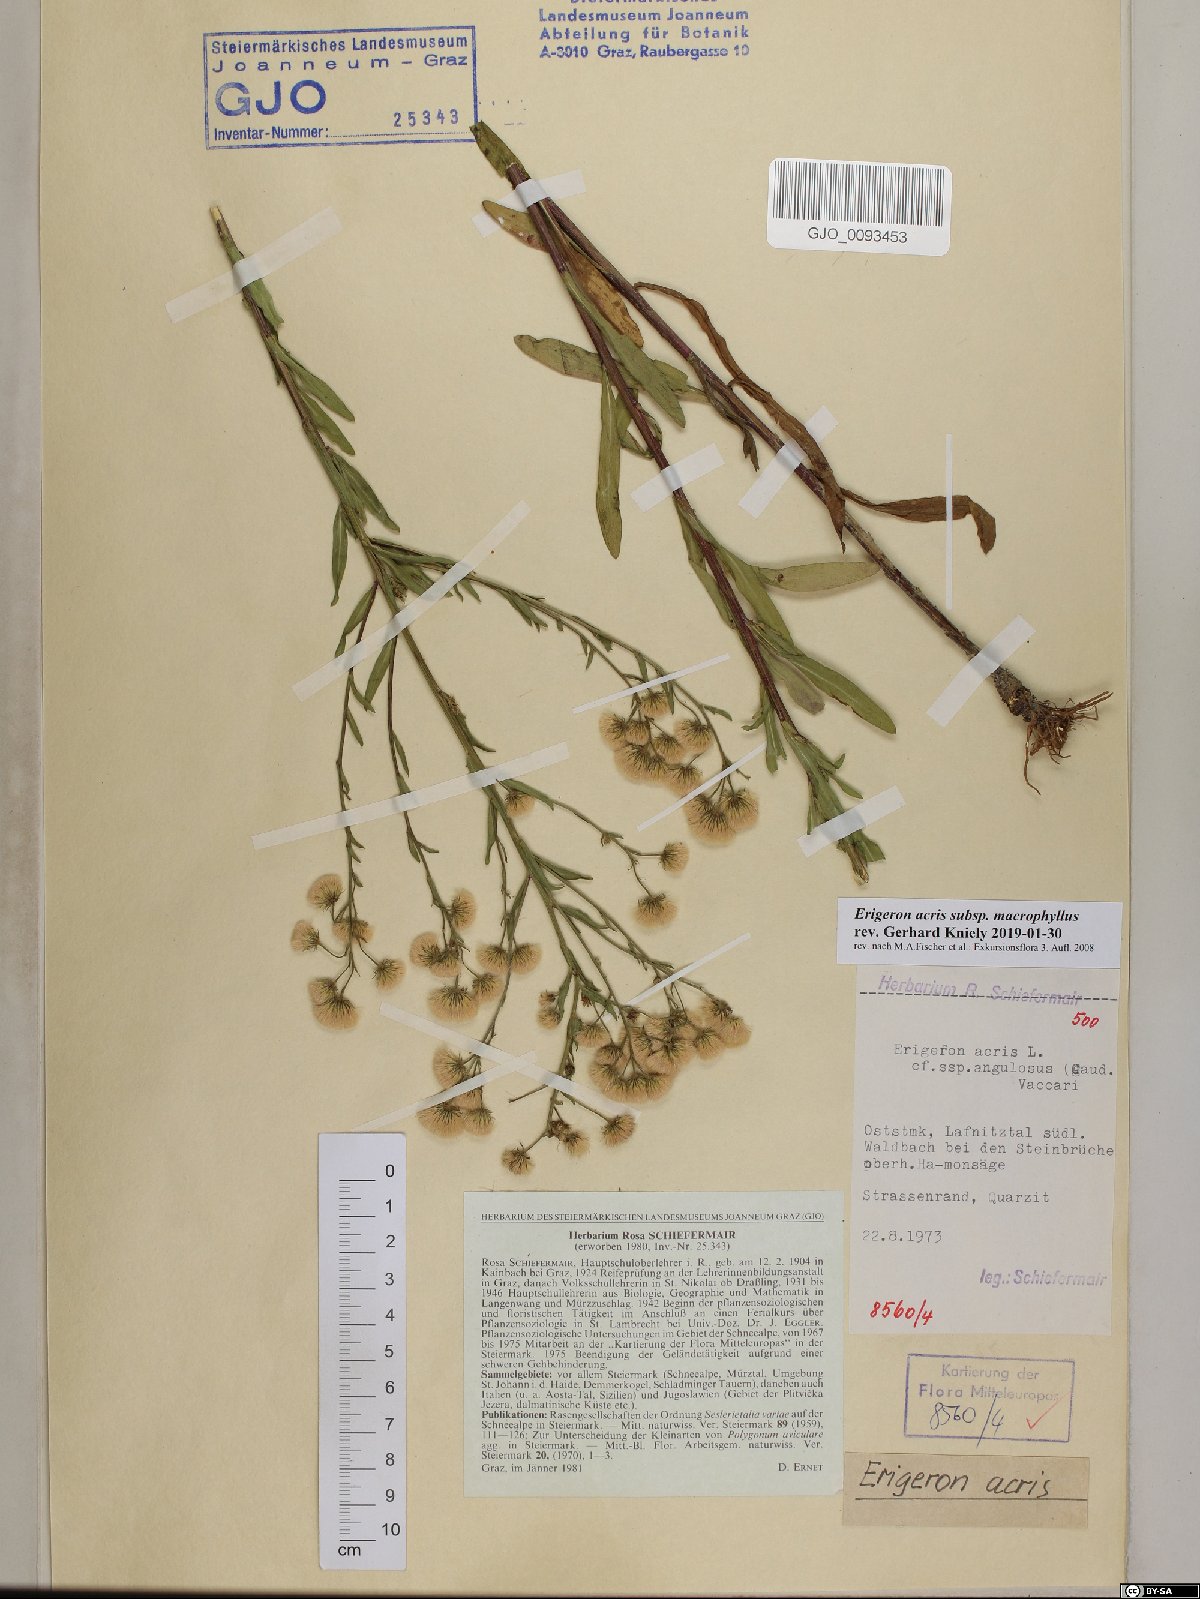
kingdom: Plantae
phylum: Tracheophyta
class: Magnoliopsida
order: Asterales
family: Asteraceae
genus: Erigeron
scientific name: Erigeron macrophyllus
